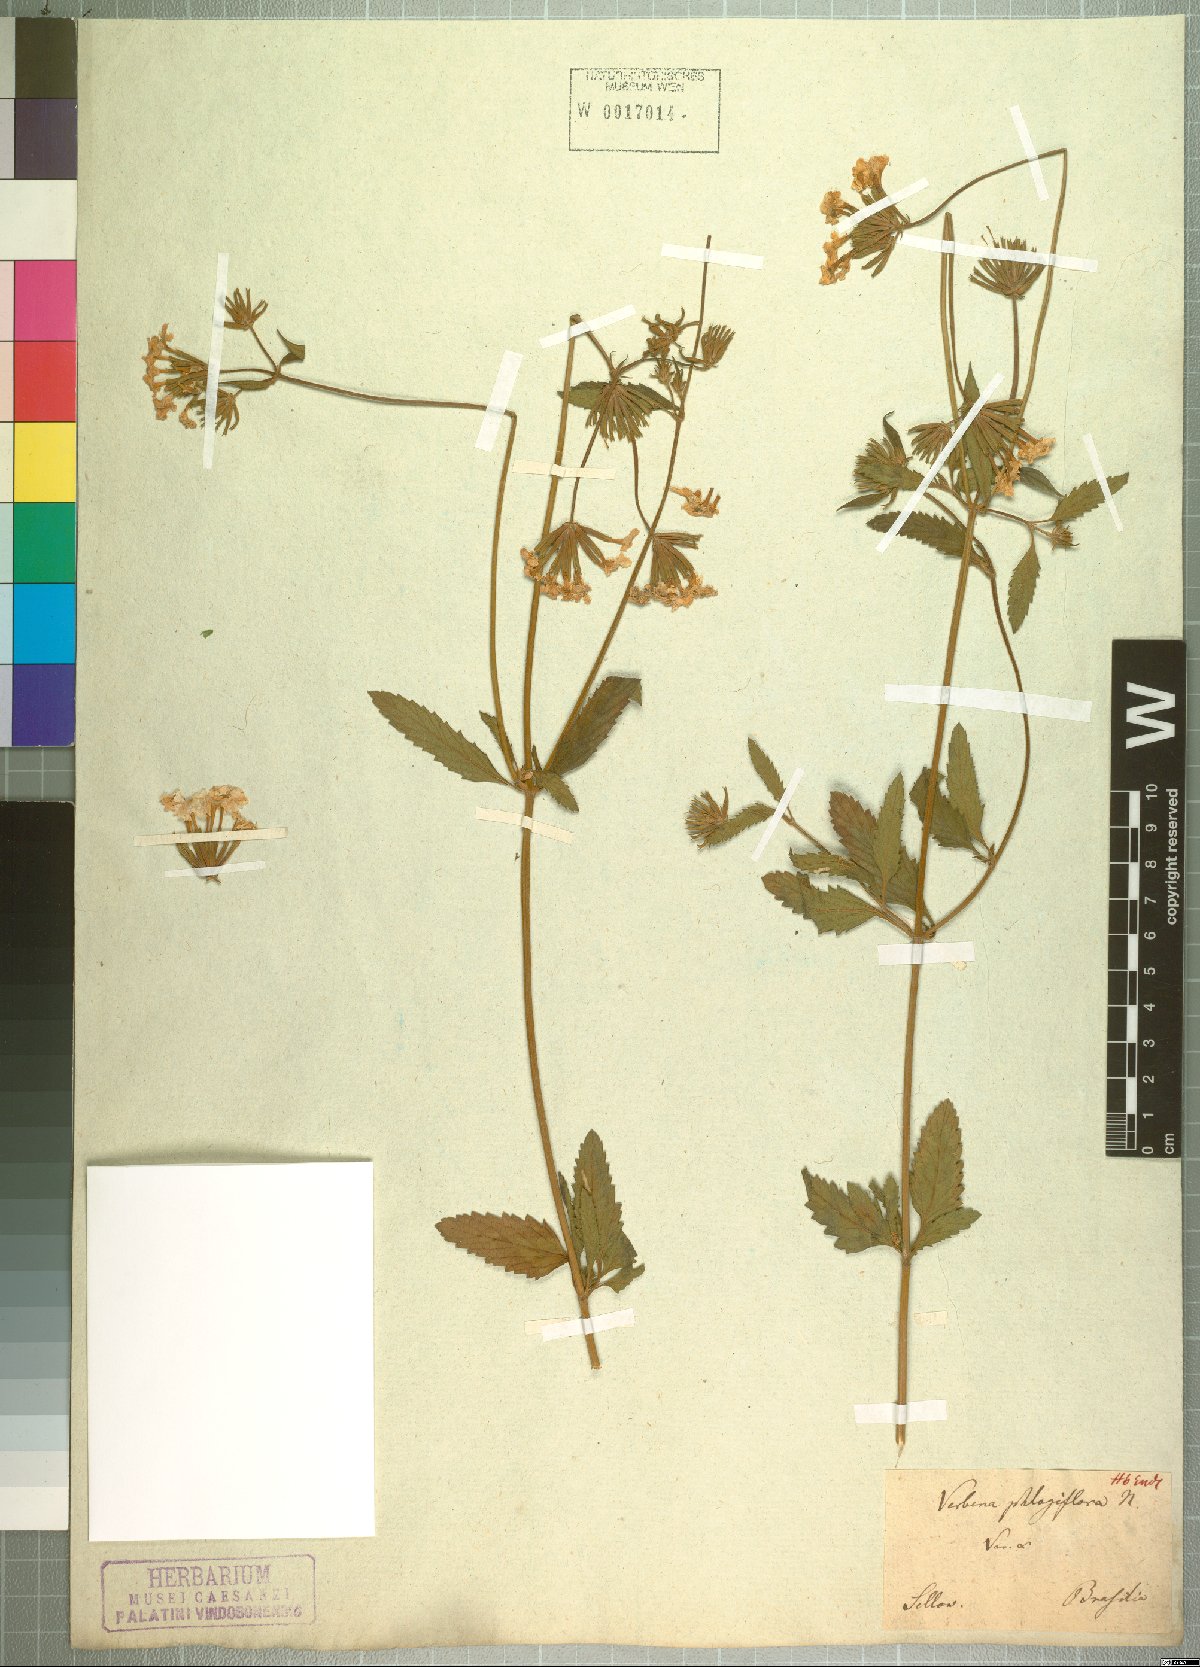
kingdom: Plantae
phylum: Tracheophyta
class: Magnoliopsida
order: Lamiales
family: Verbenaceae
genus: Verbena
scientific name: Verbena phlogiflora
